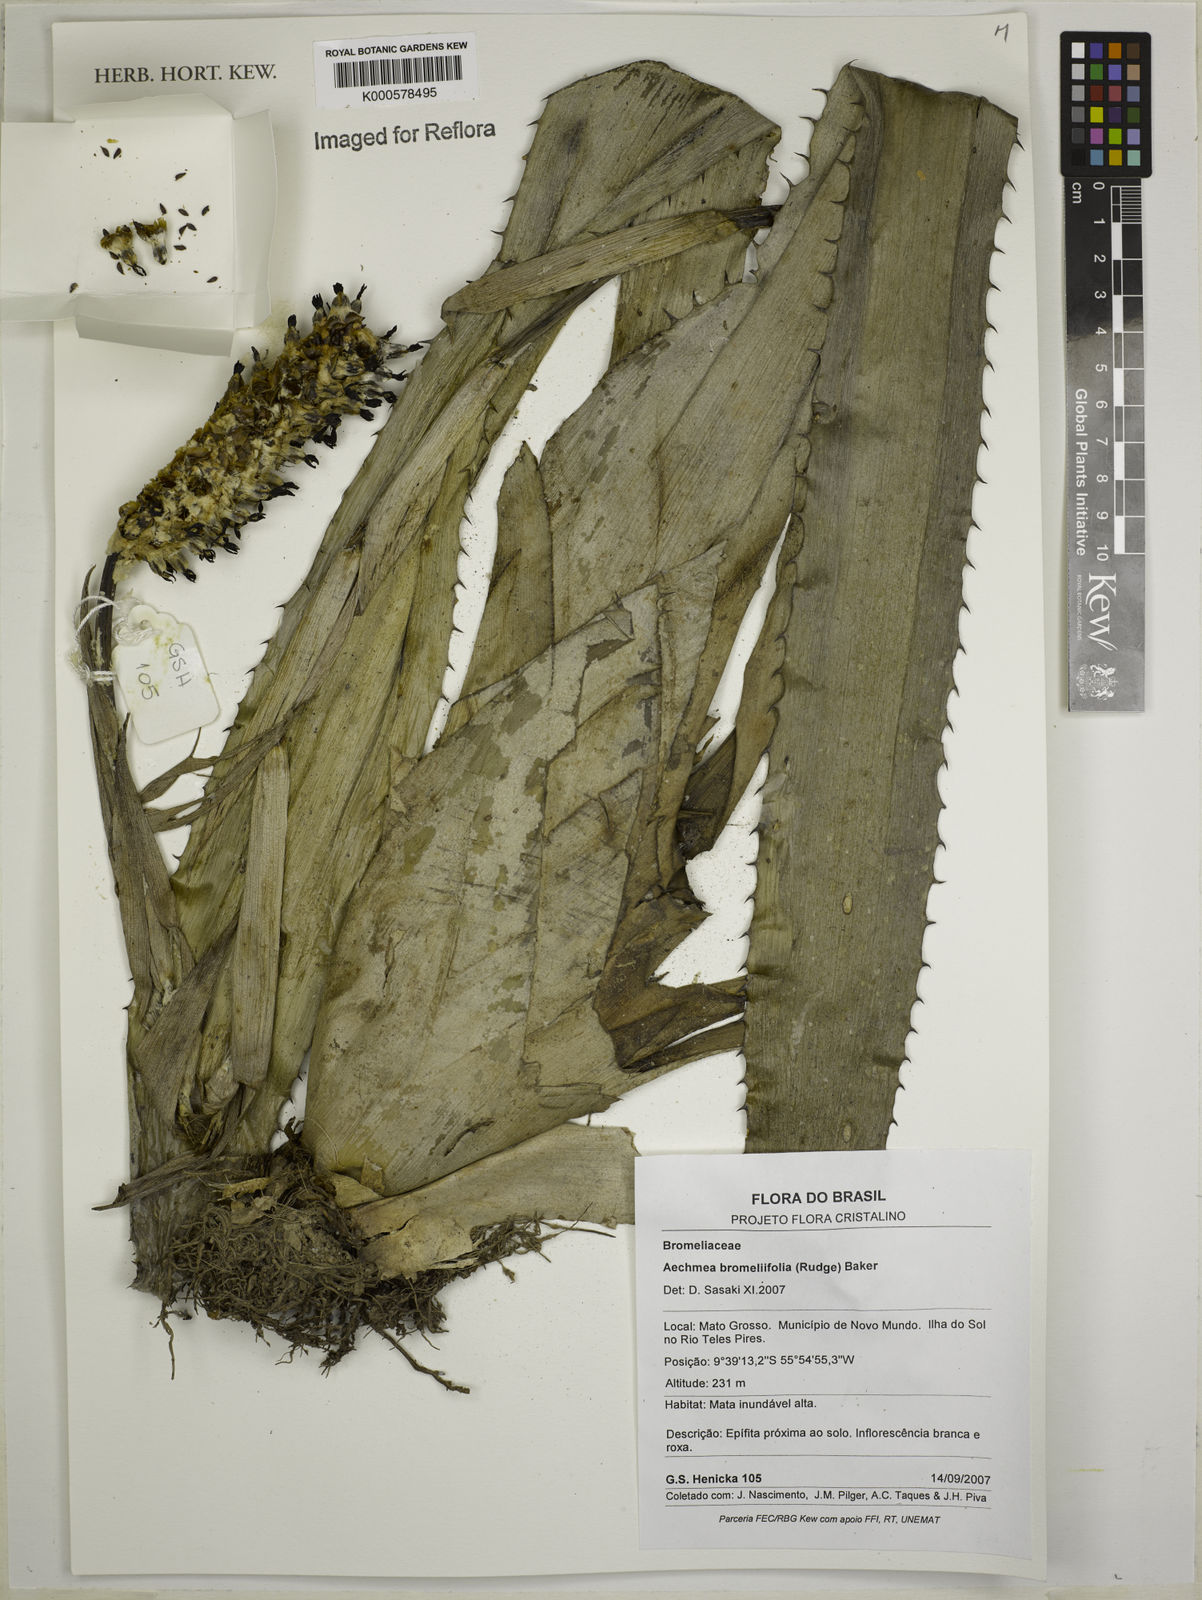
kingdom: Plantae
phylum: Tracheophyta
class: Liliopsida
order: Poales
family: Bromeliaceae
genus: Aechmea
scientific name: Aechmea
